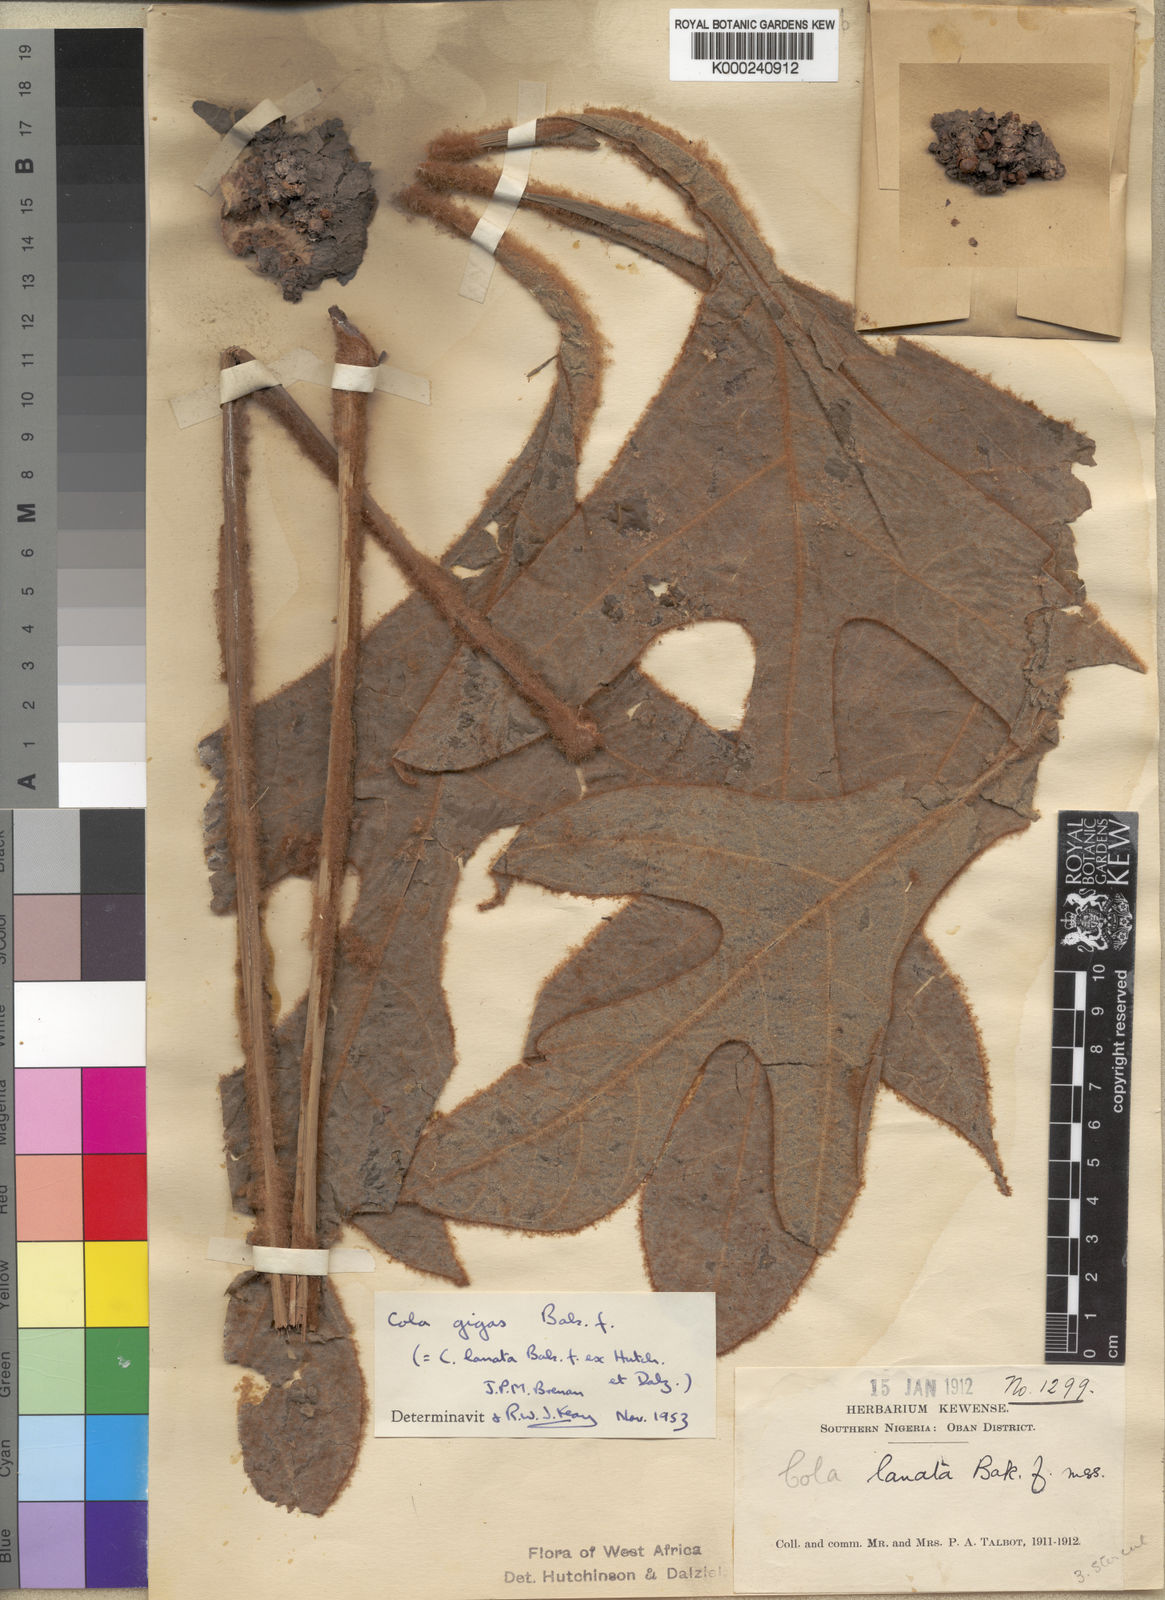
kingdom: Plantae
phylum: Tracheophyta
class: Magnoliopsida
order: Malvales
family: Malvaceae
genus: Cola
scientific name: Cola gigas
